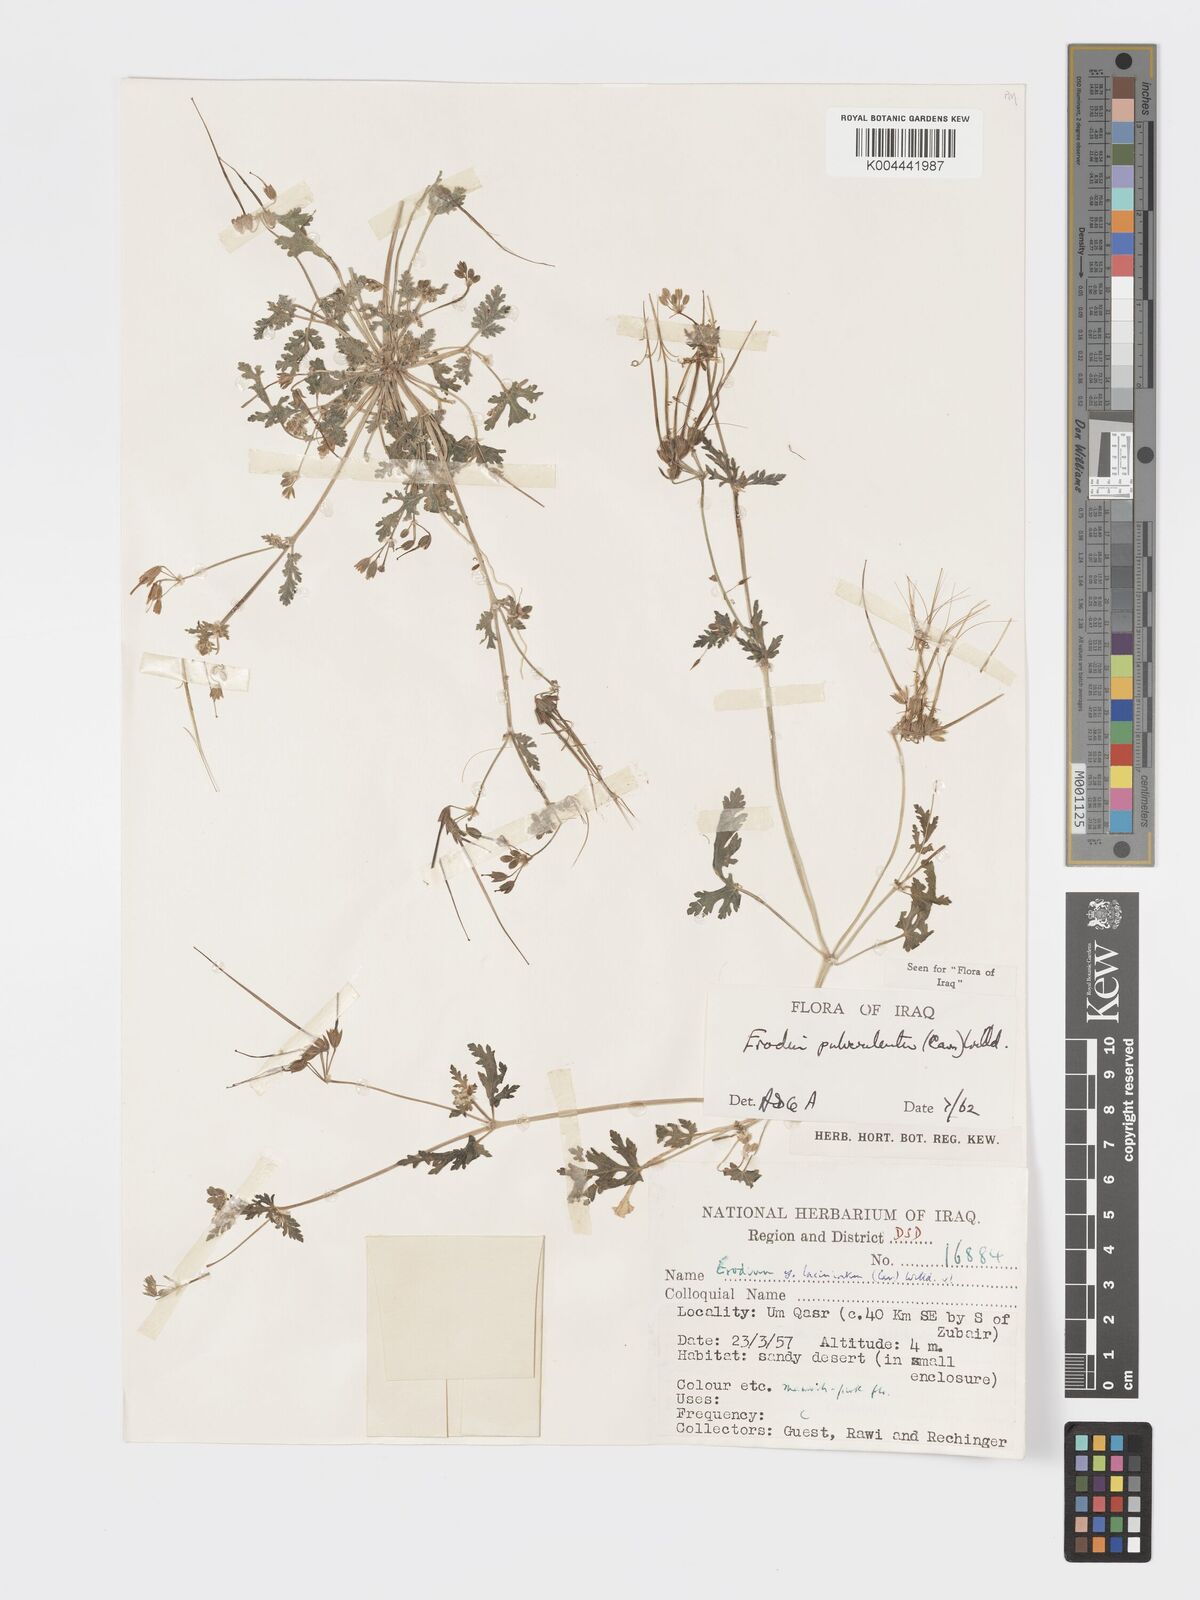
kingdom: Plantae
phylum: Tracheophyta
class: Magnoliopsida
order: Geraniales
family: Geraniaceae
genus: Erodium
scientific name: Erodium laciniatum
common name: Cutleaf stork's bill
